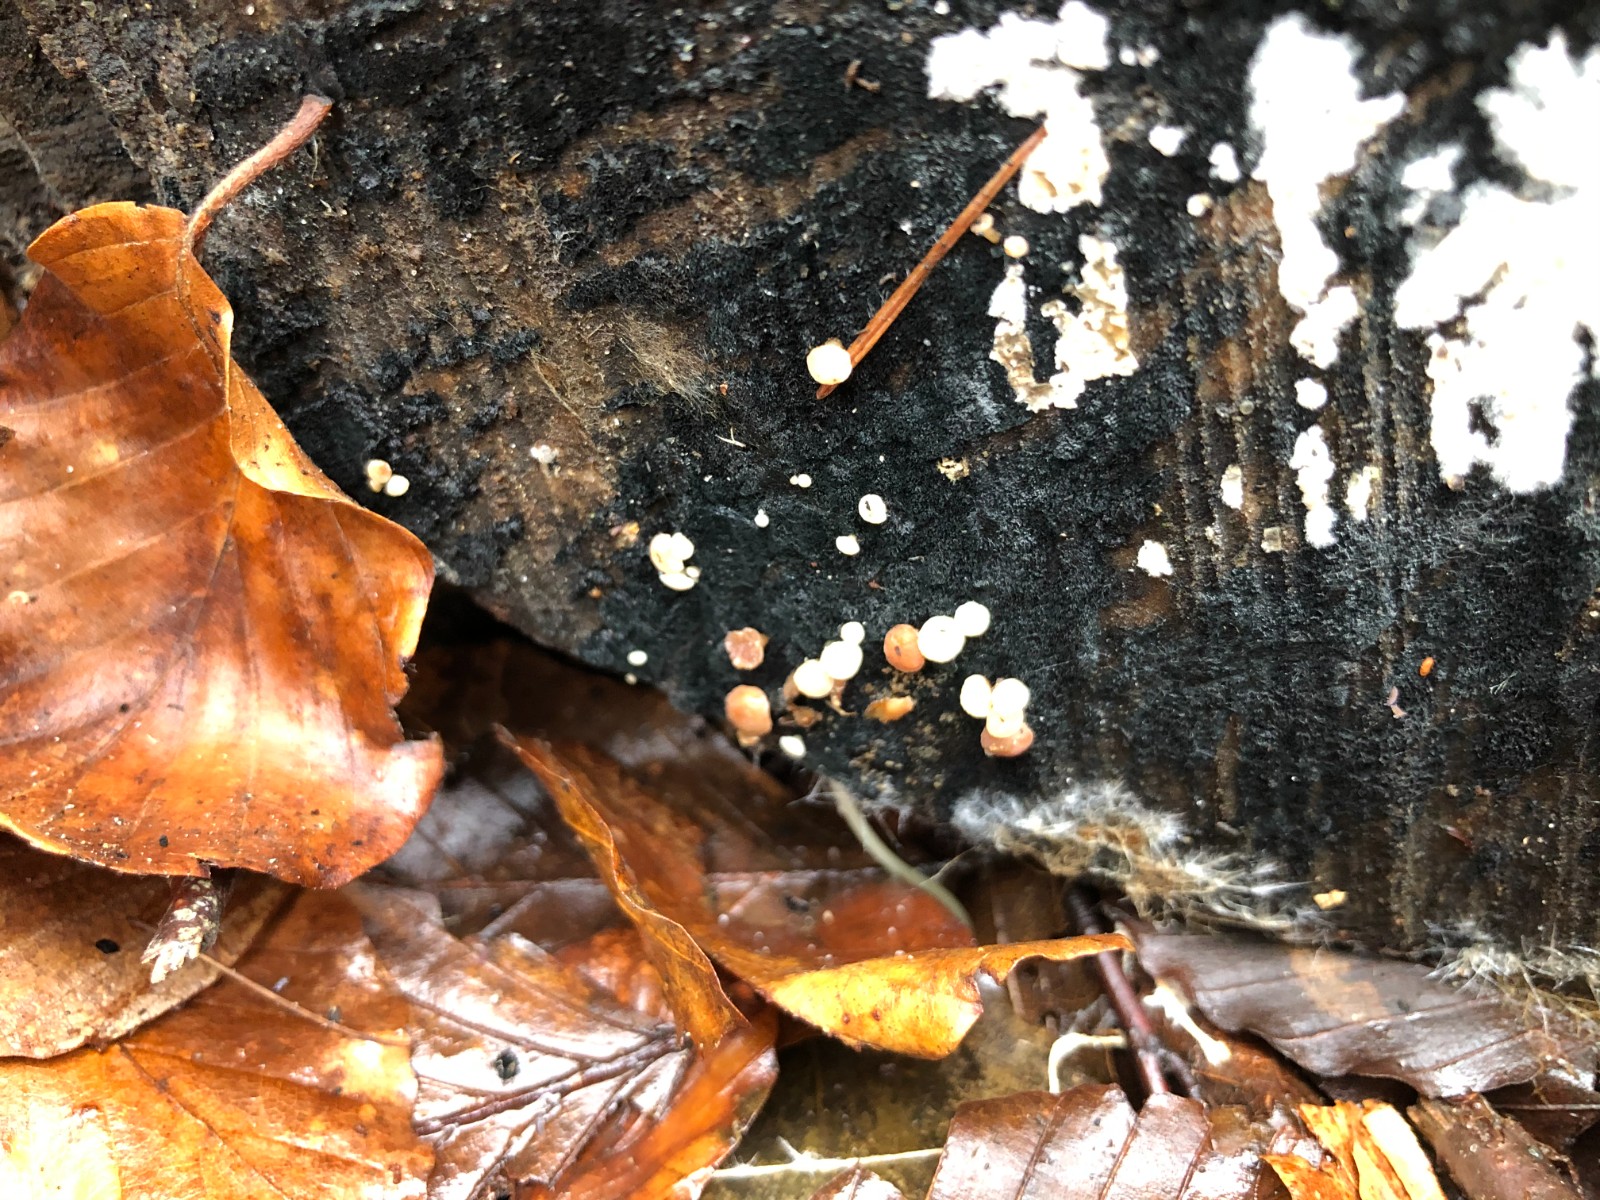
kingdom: Fungi
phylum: Ascomycota
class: Leotiomycetes
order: Helotiales
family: Helotiaceae
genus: Bispora
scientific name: Bispora pallescens
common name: måtte-snitskive
